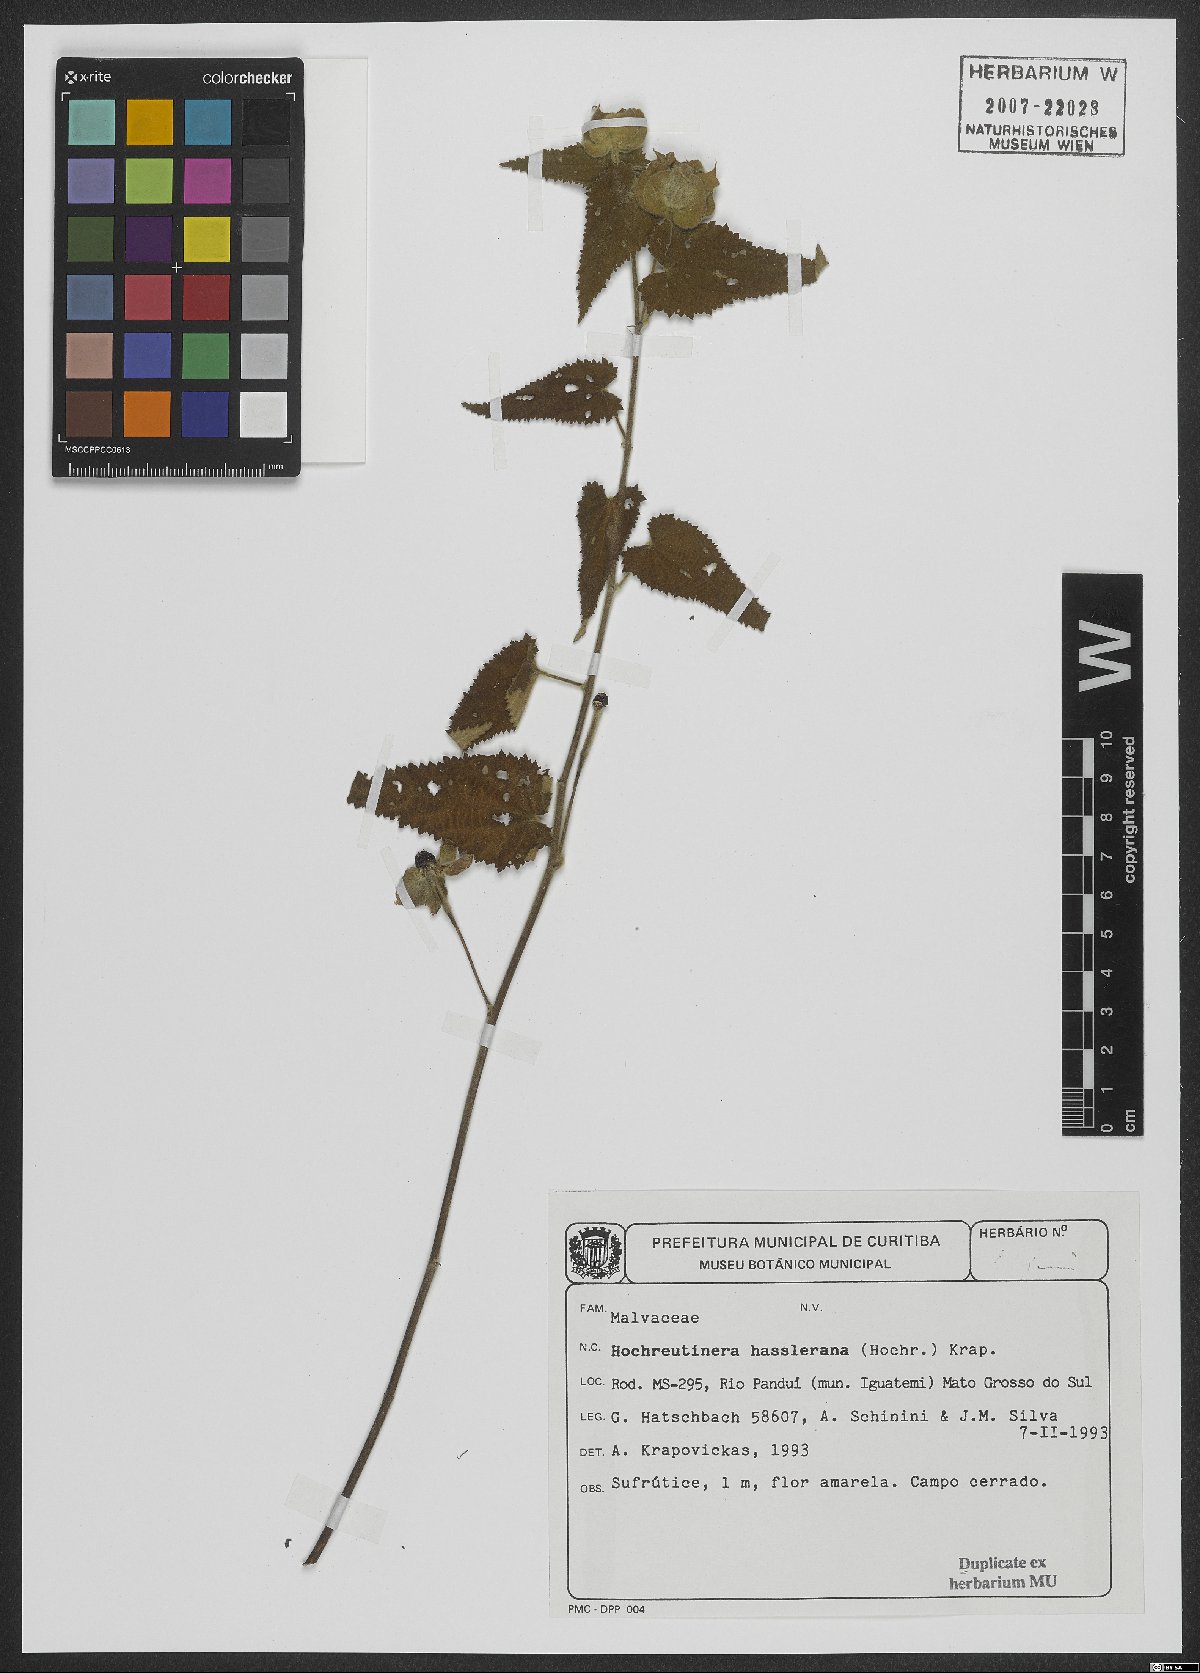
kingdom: Plantae
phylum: Tracheophyta
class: Magnoliopsida
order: Malvales
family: Malvaceae
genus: Hochreutinera
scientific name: Hochreutinera hassleriana
